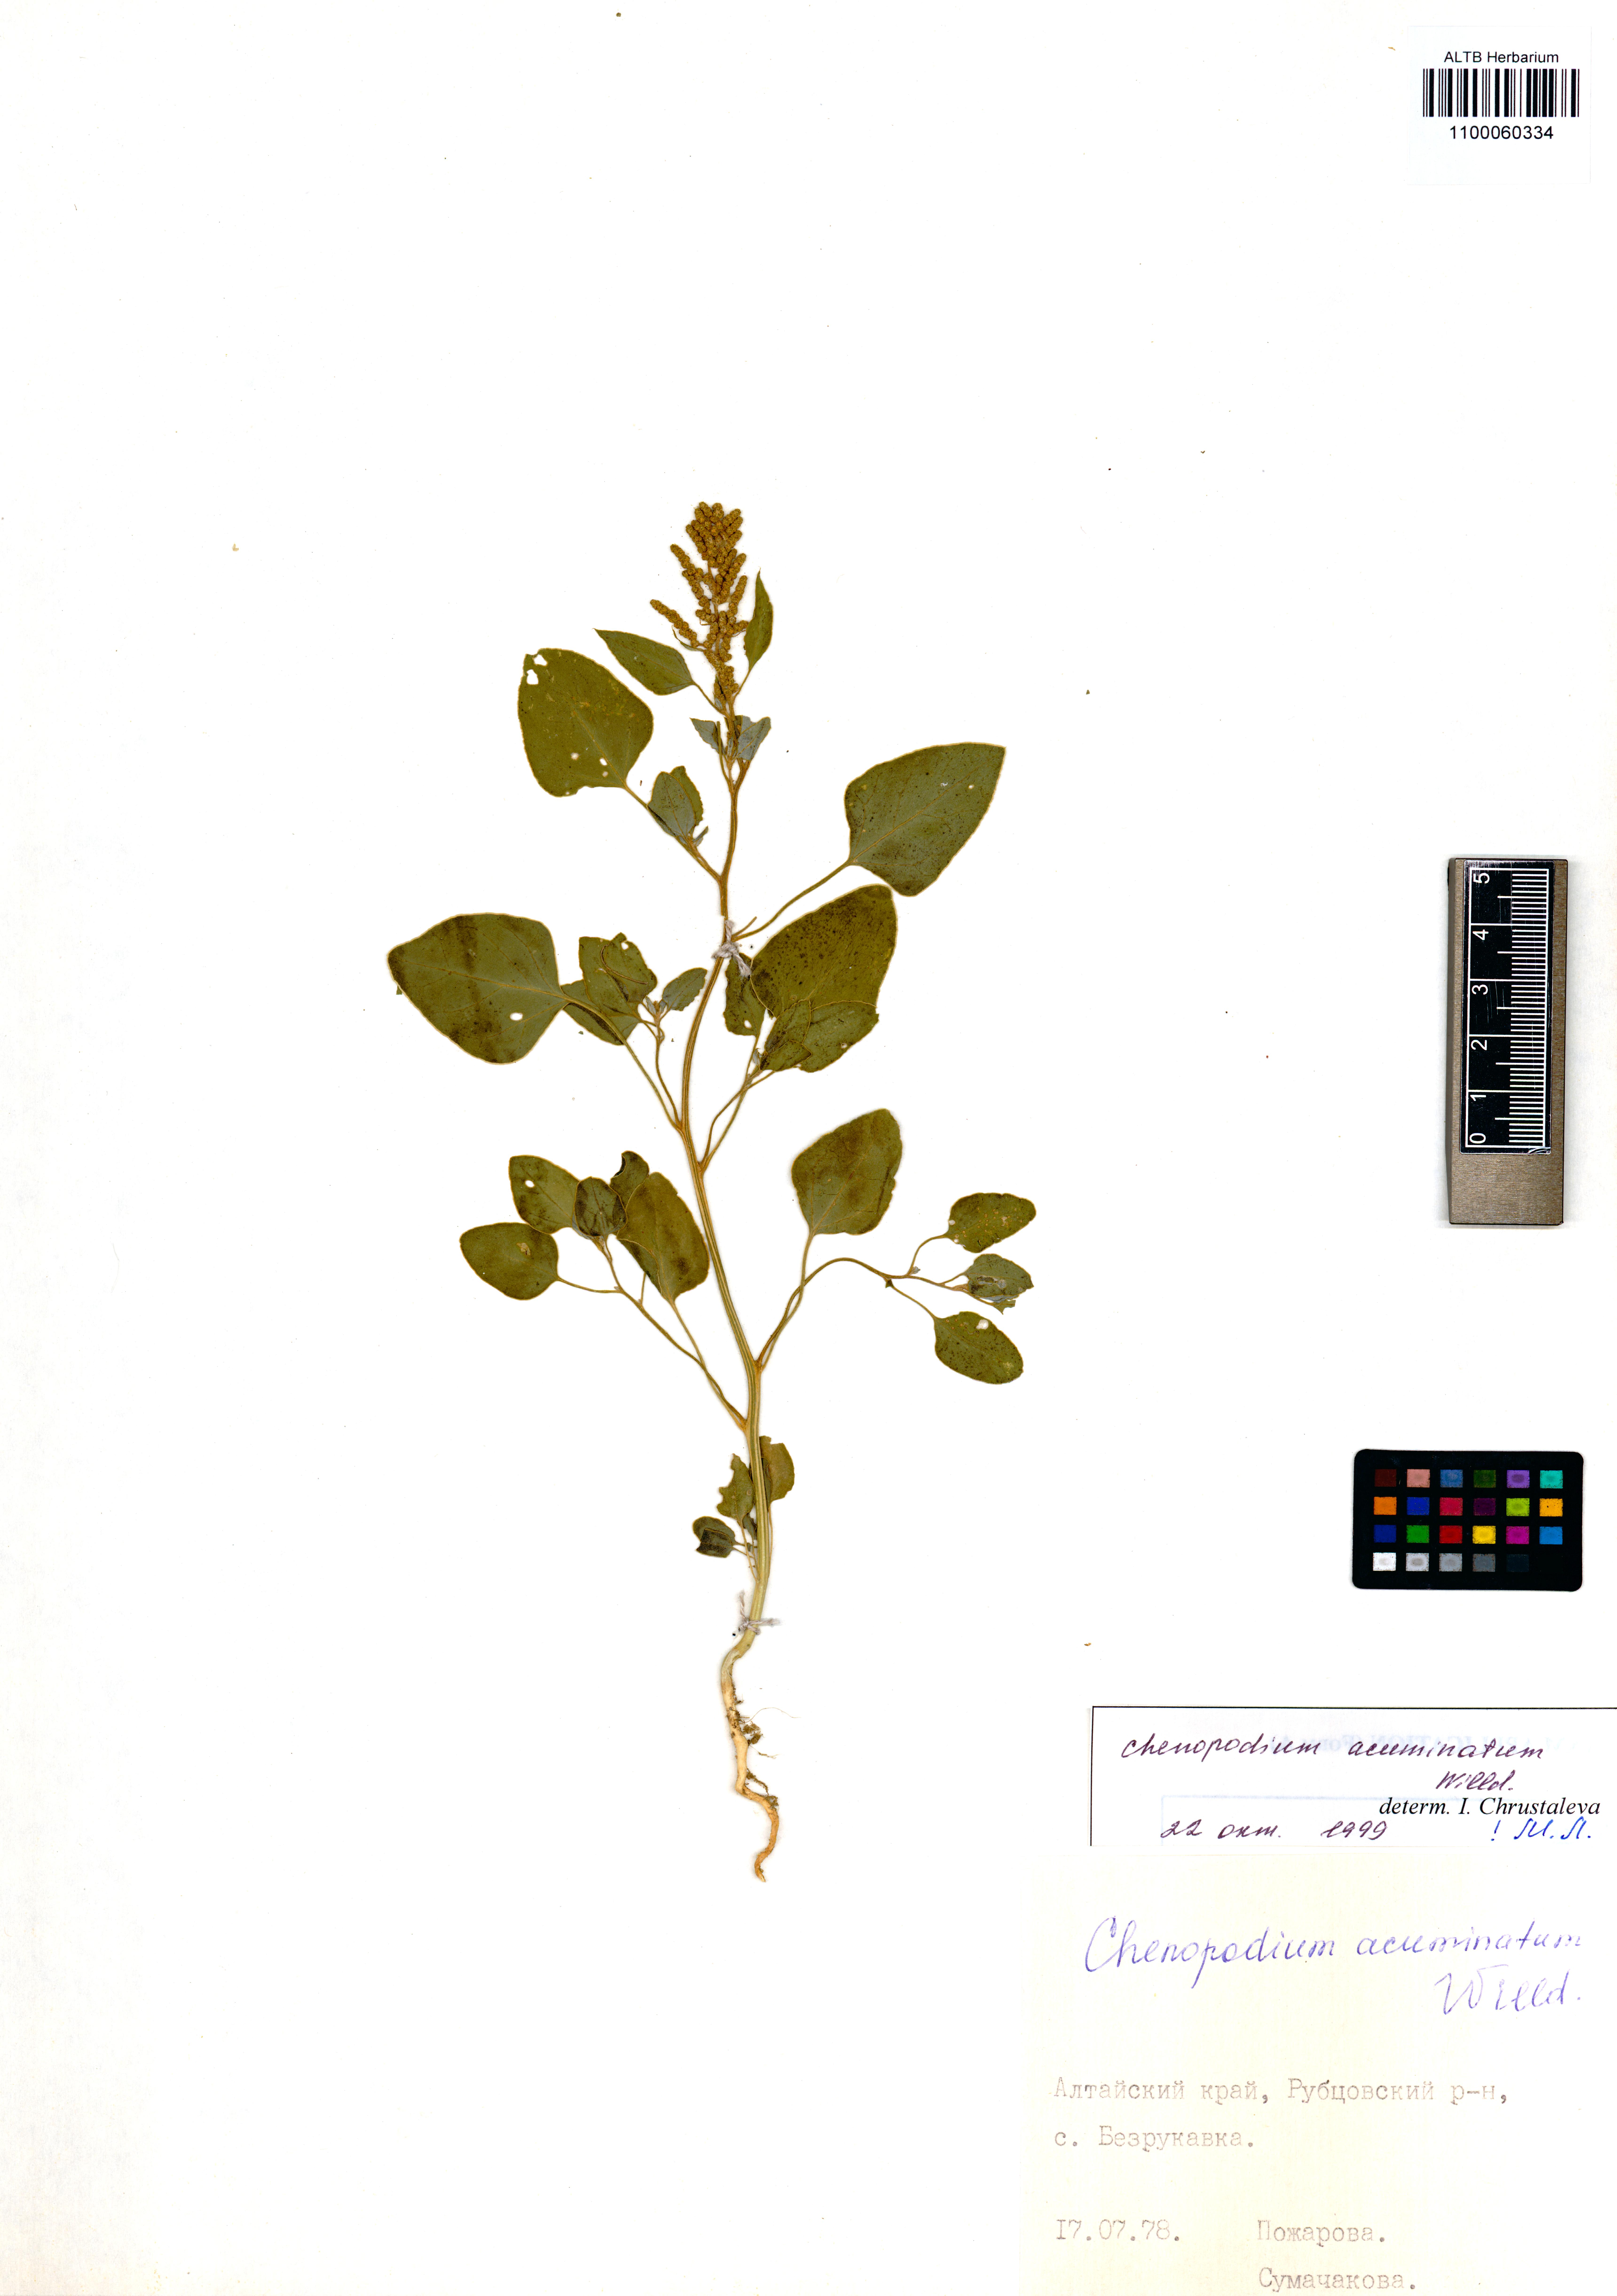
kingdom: Plantae
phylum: Tracheophyta
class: Magnoliopsida
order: Caryophyllales
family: Amaranthaceae
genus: Chenopodium
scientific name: Chenopodium acuminatum
